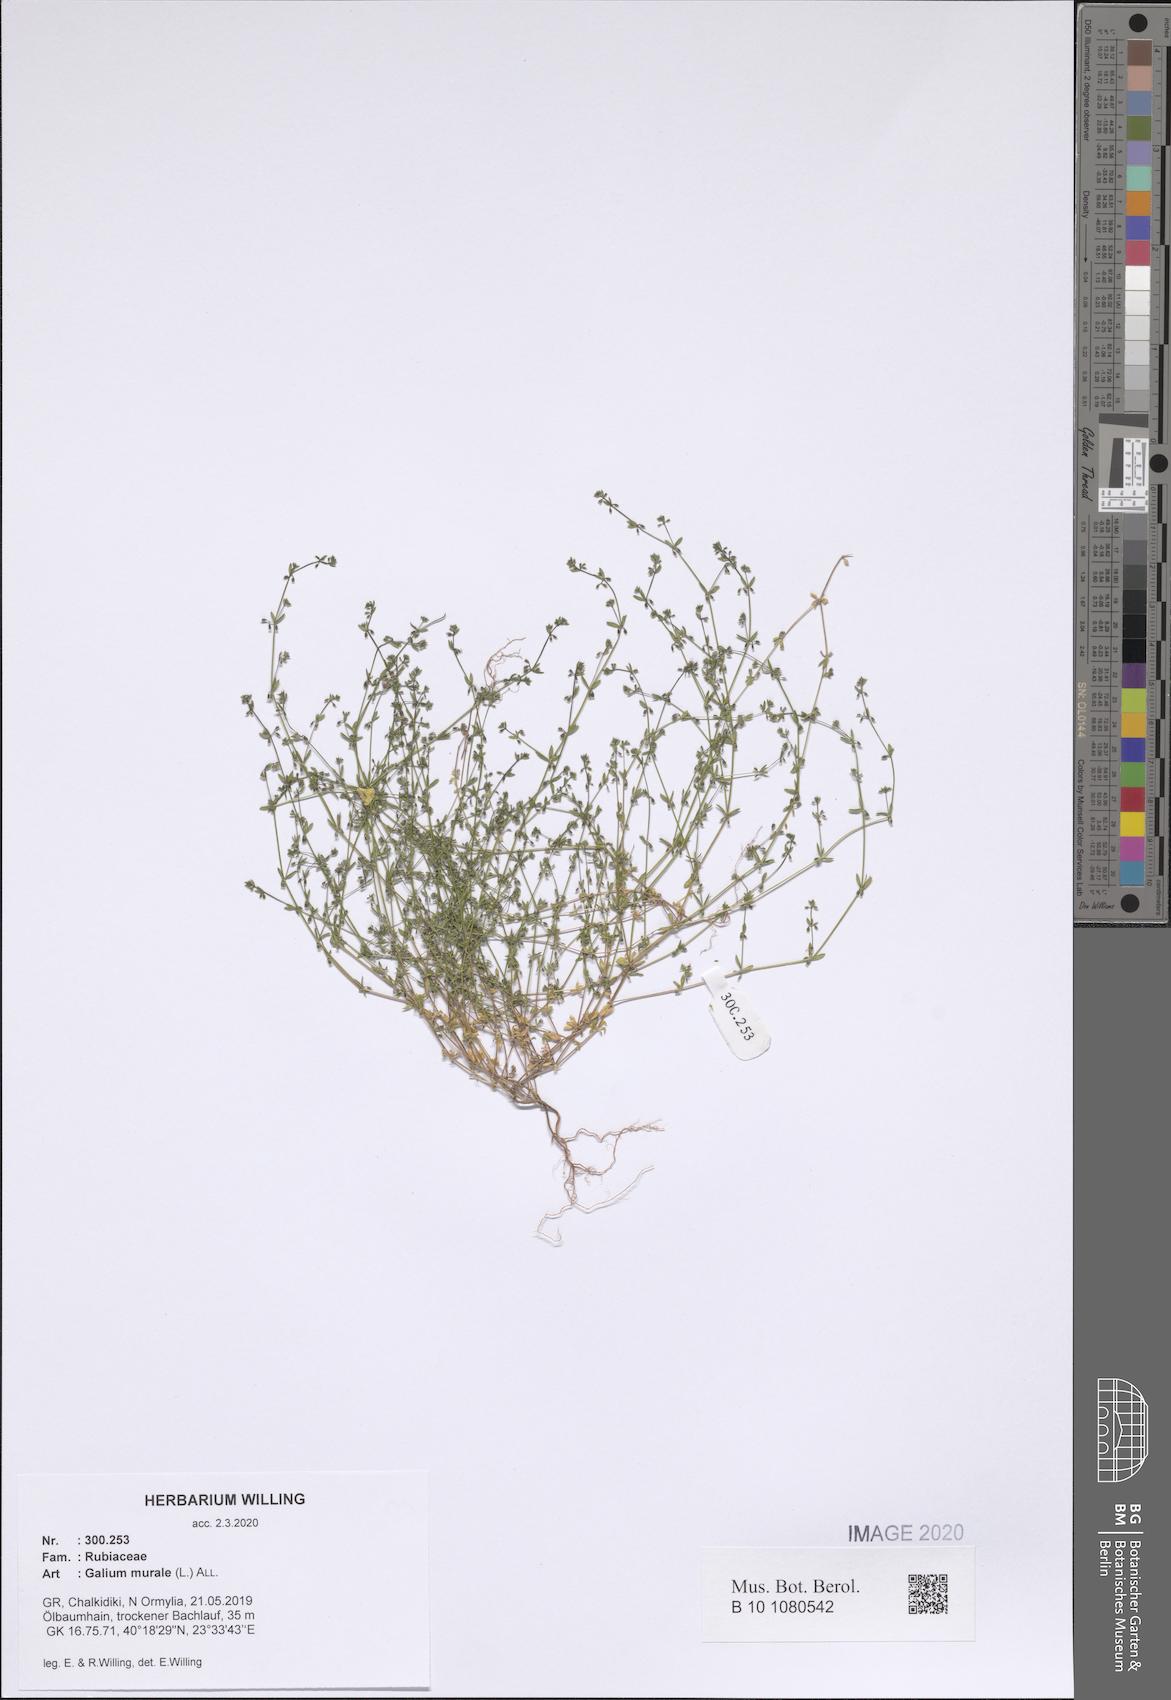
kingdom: Plantae
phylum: Tracheophyta
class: Magnoliopsida
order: Gentianales
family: Rubiaceae
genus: Galium
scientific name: Galium murale
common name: Yellow wall bedstraw
